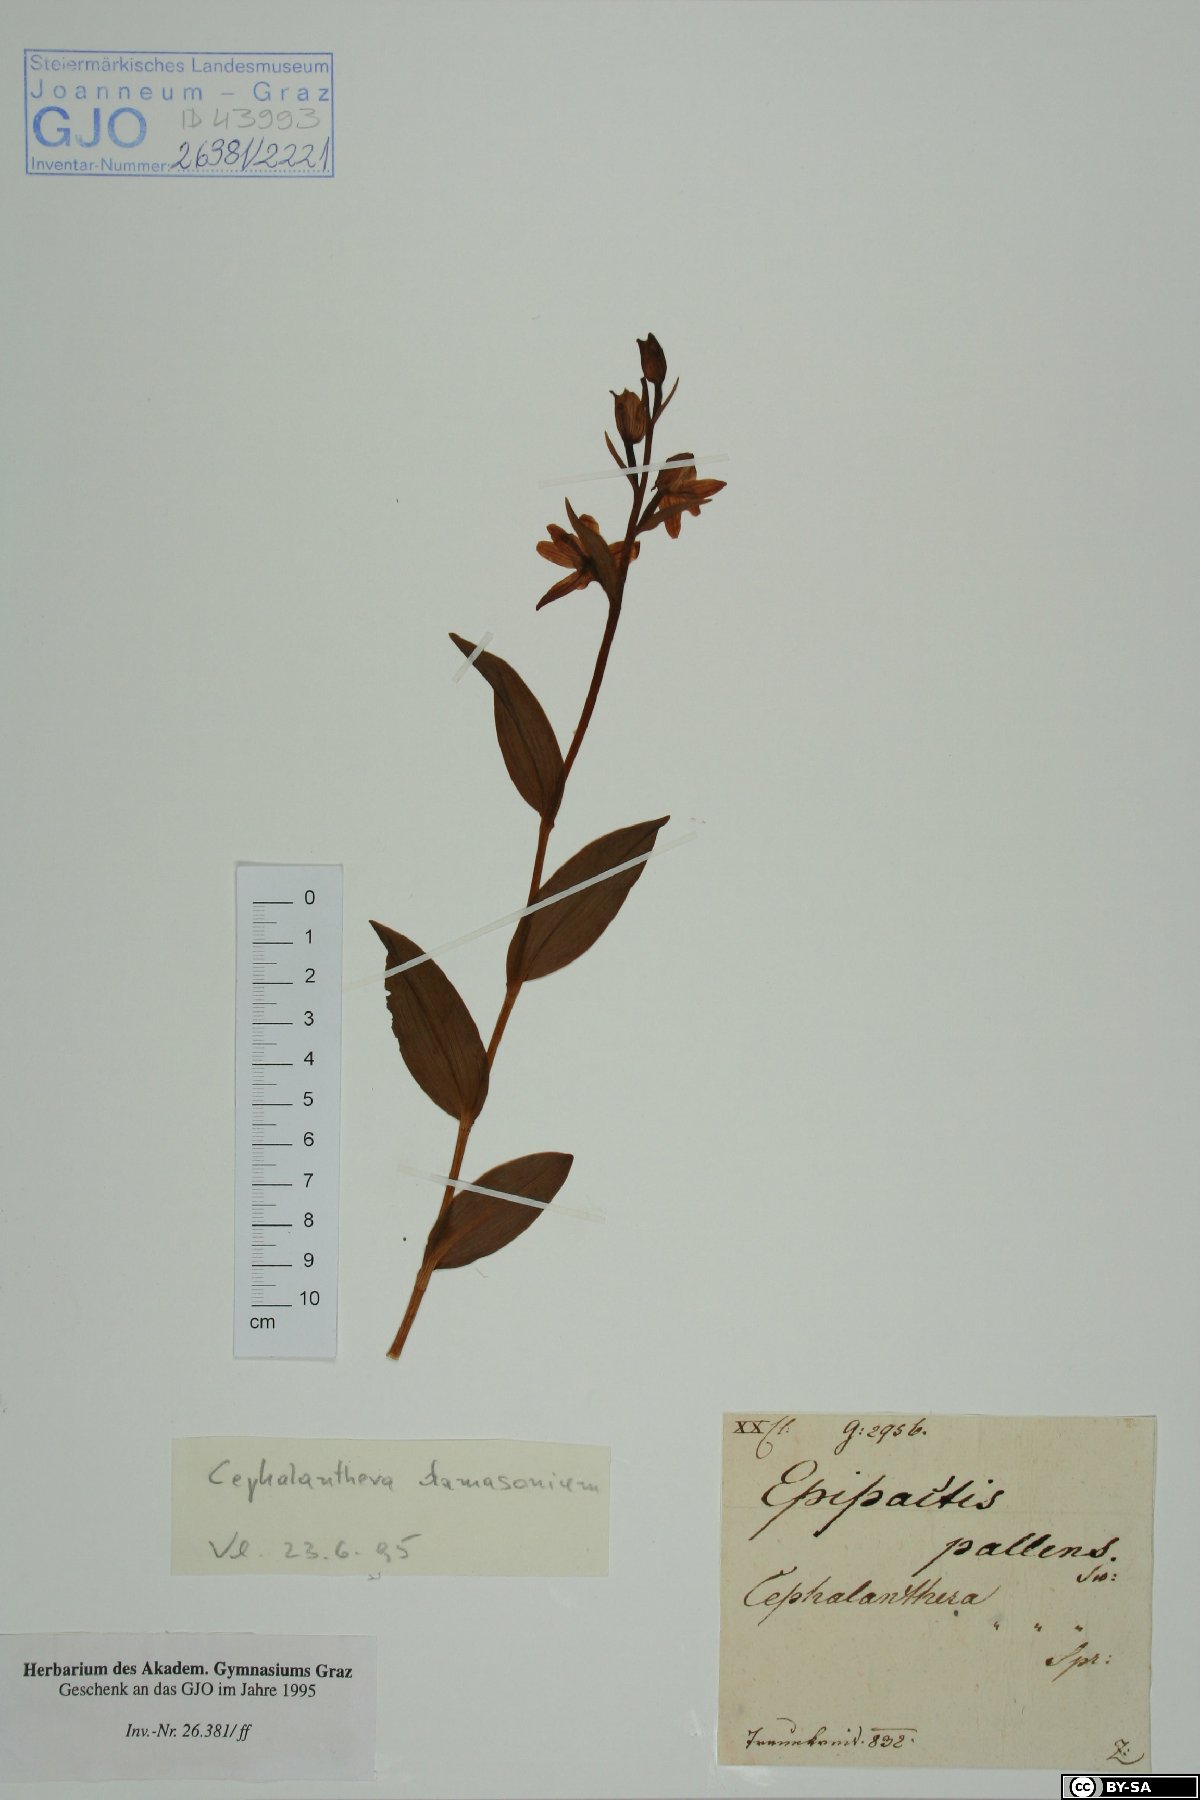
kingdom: Plantae
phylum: Tracheophyta
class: Liliopsida
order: Asparagales
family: Orchidaceae
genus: Cephalanthera
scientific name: Cephalanthera damasonium
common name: White helleborine
